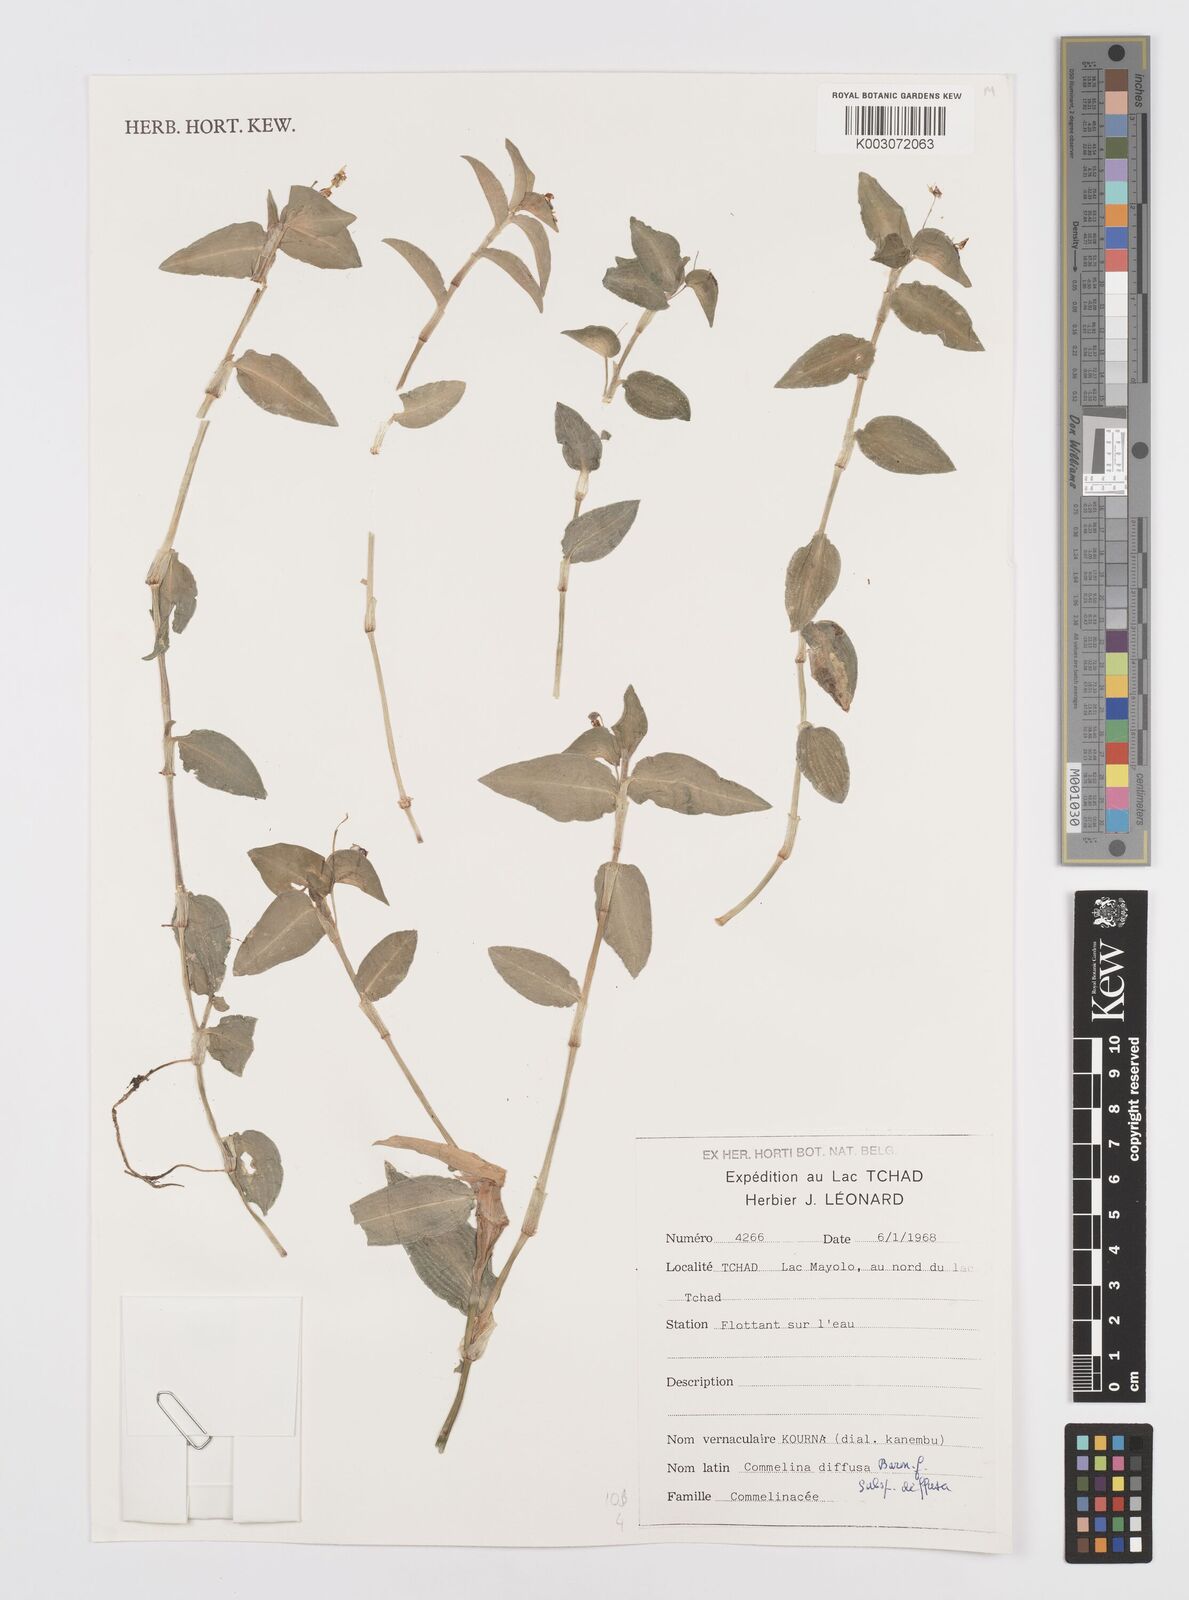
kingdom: Plantae
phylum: Tracheophyta
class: Liliopsida
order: Commelinales
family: Commelinaceae
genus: Commelina
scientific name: Commelina diffusa
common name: Climbing dayflower
